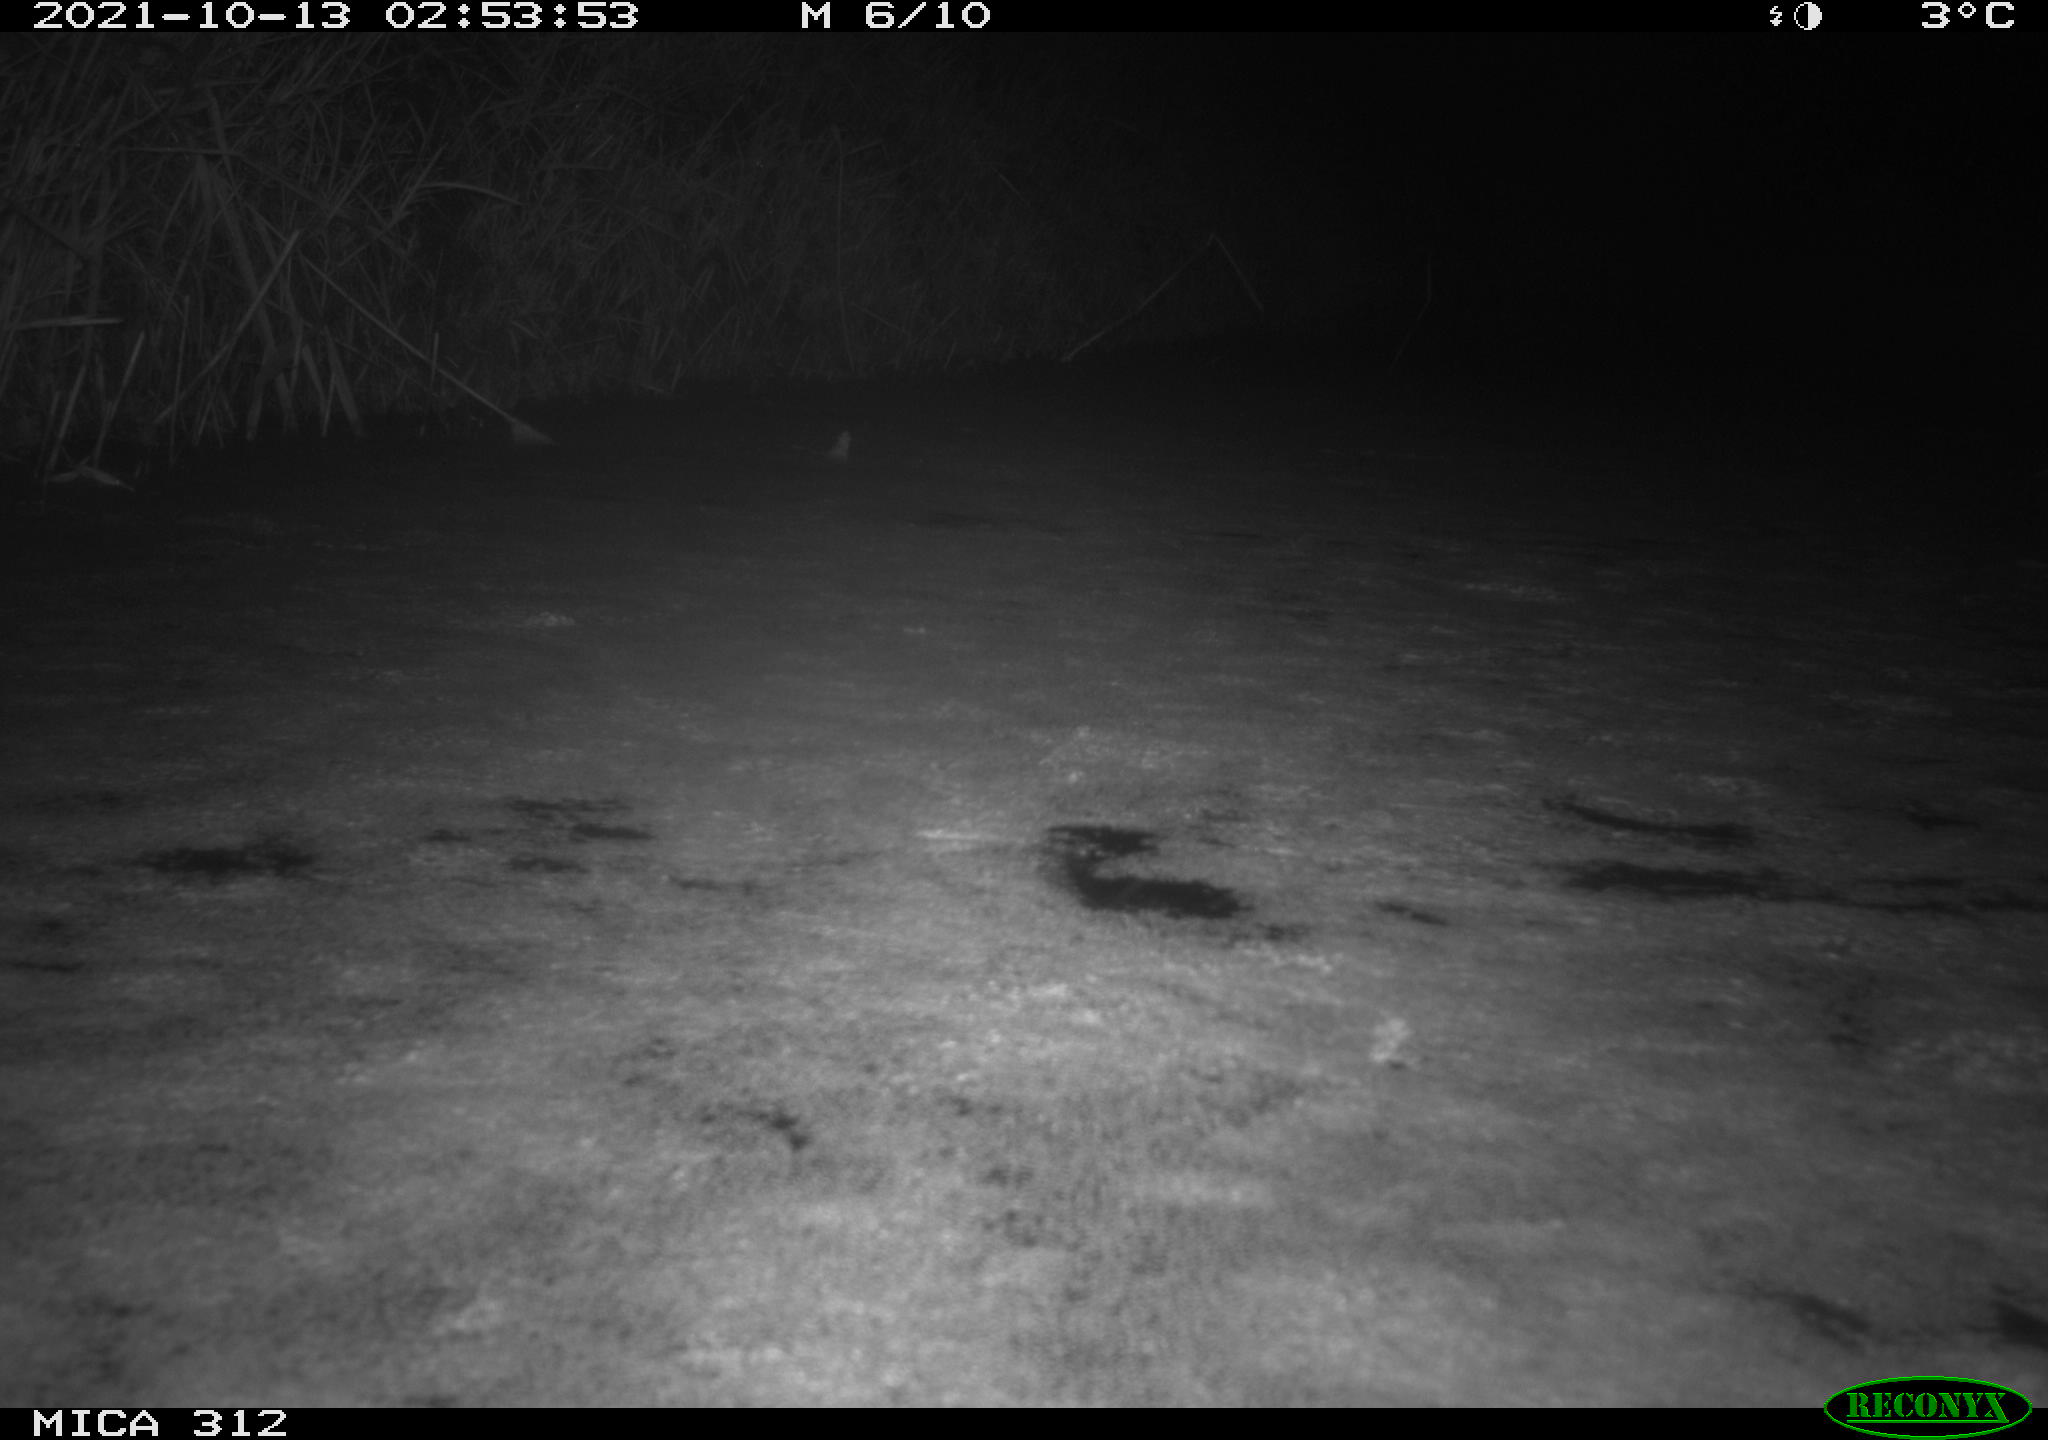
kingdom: Animalia
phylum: Chordata
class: Mammalia
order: Rodentia
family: Muridae
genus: Rattus
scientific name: Rattus norvegicus
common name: Brown rat
